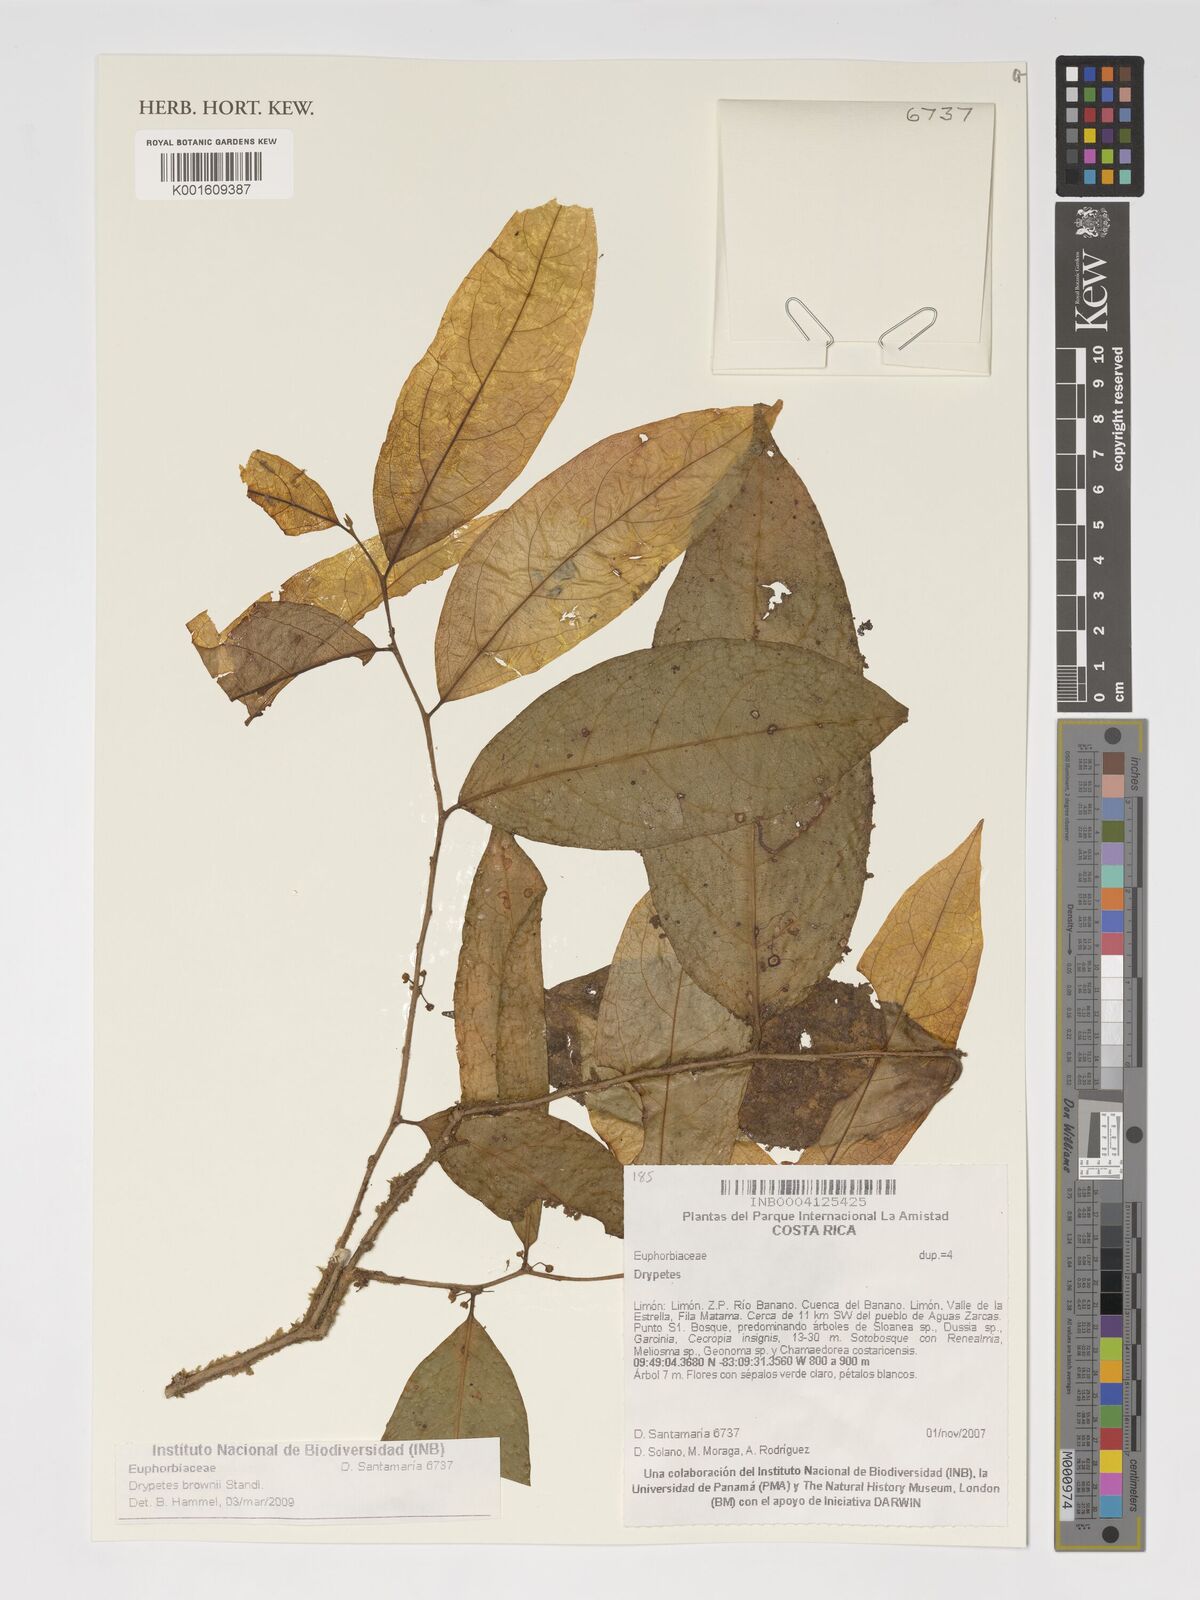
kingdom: Plantae
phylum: Tracheophyta
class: Magnoliopsida
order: Malpighiales
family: Putranjivaceae
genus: Drypetes
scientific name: Drypetes brownii
